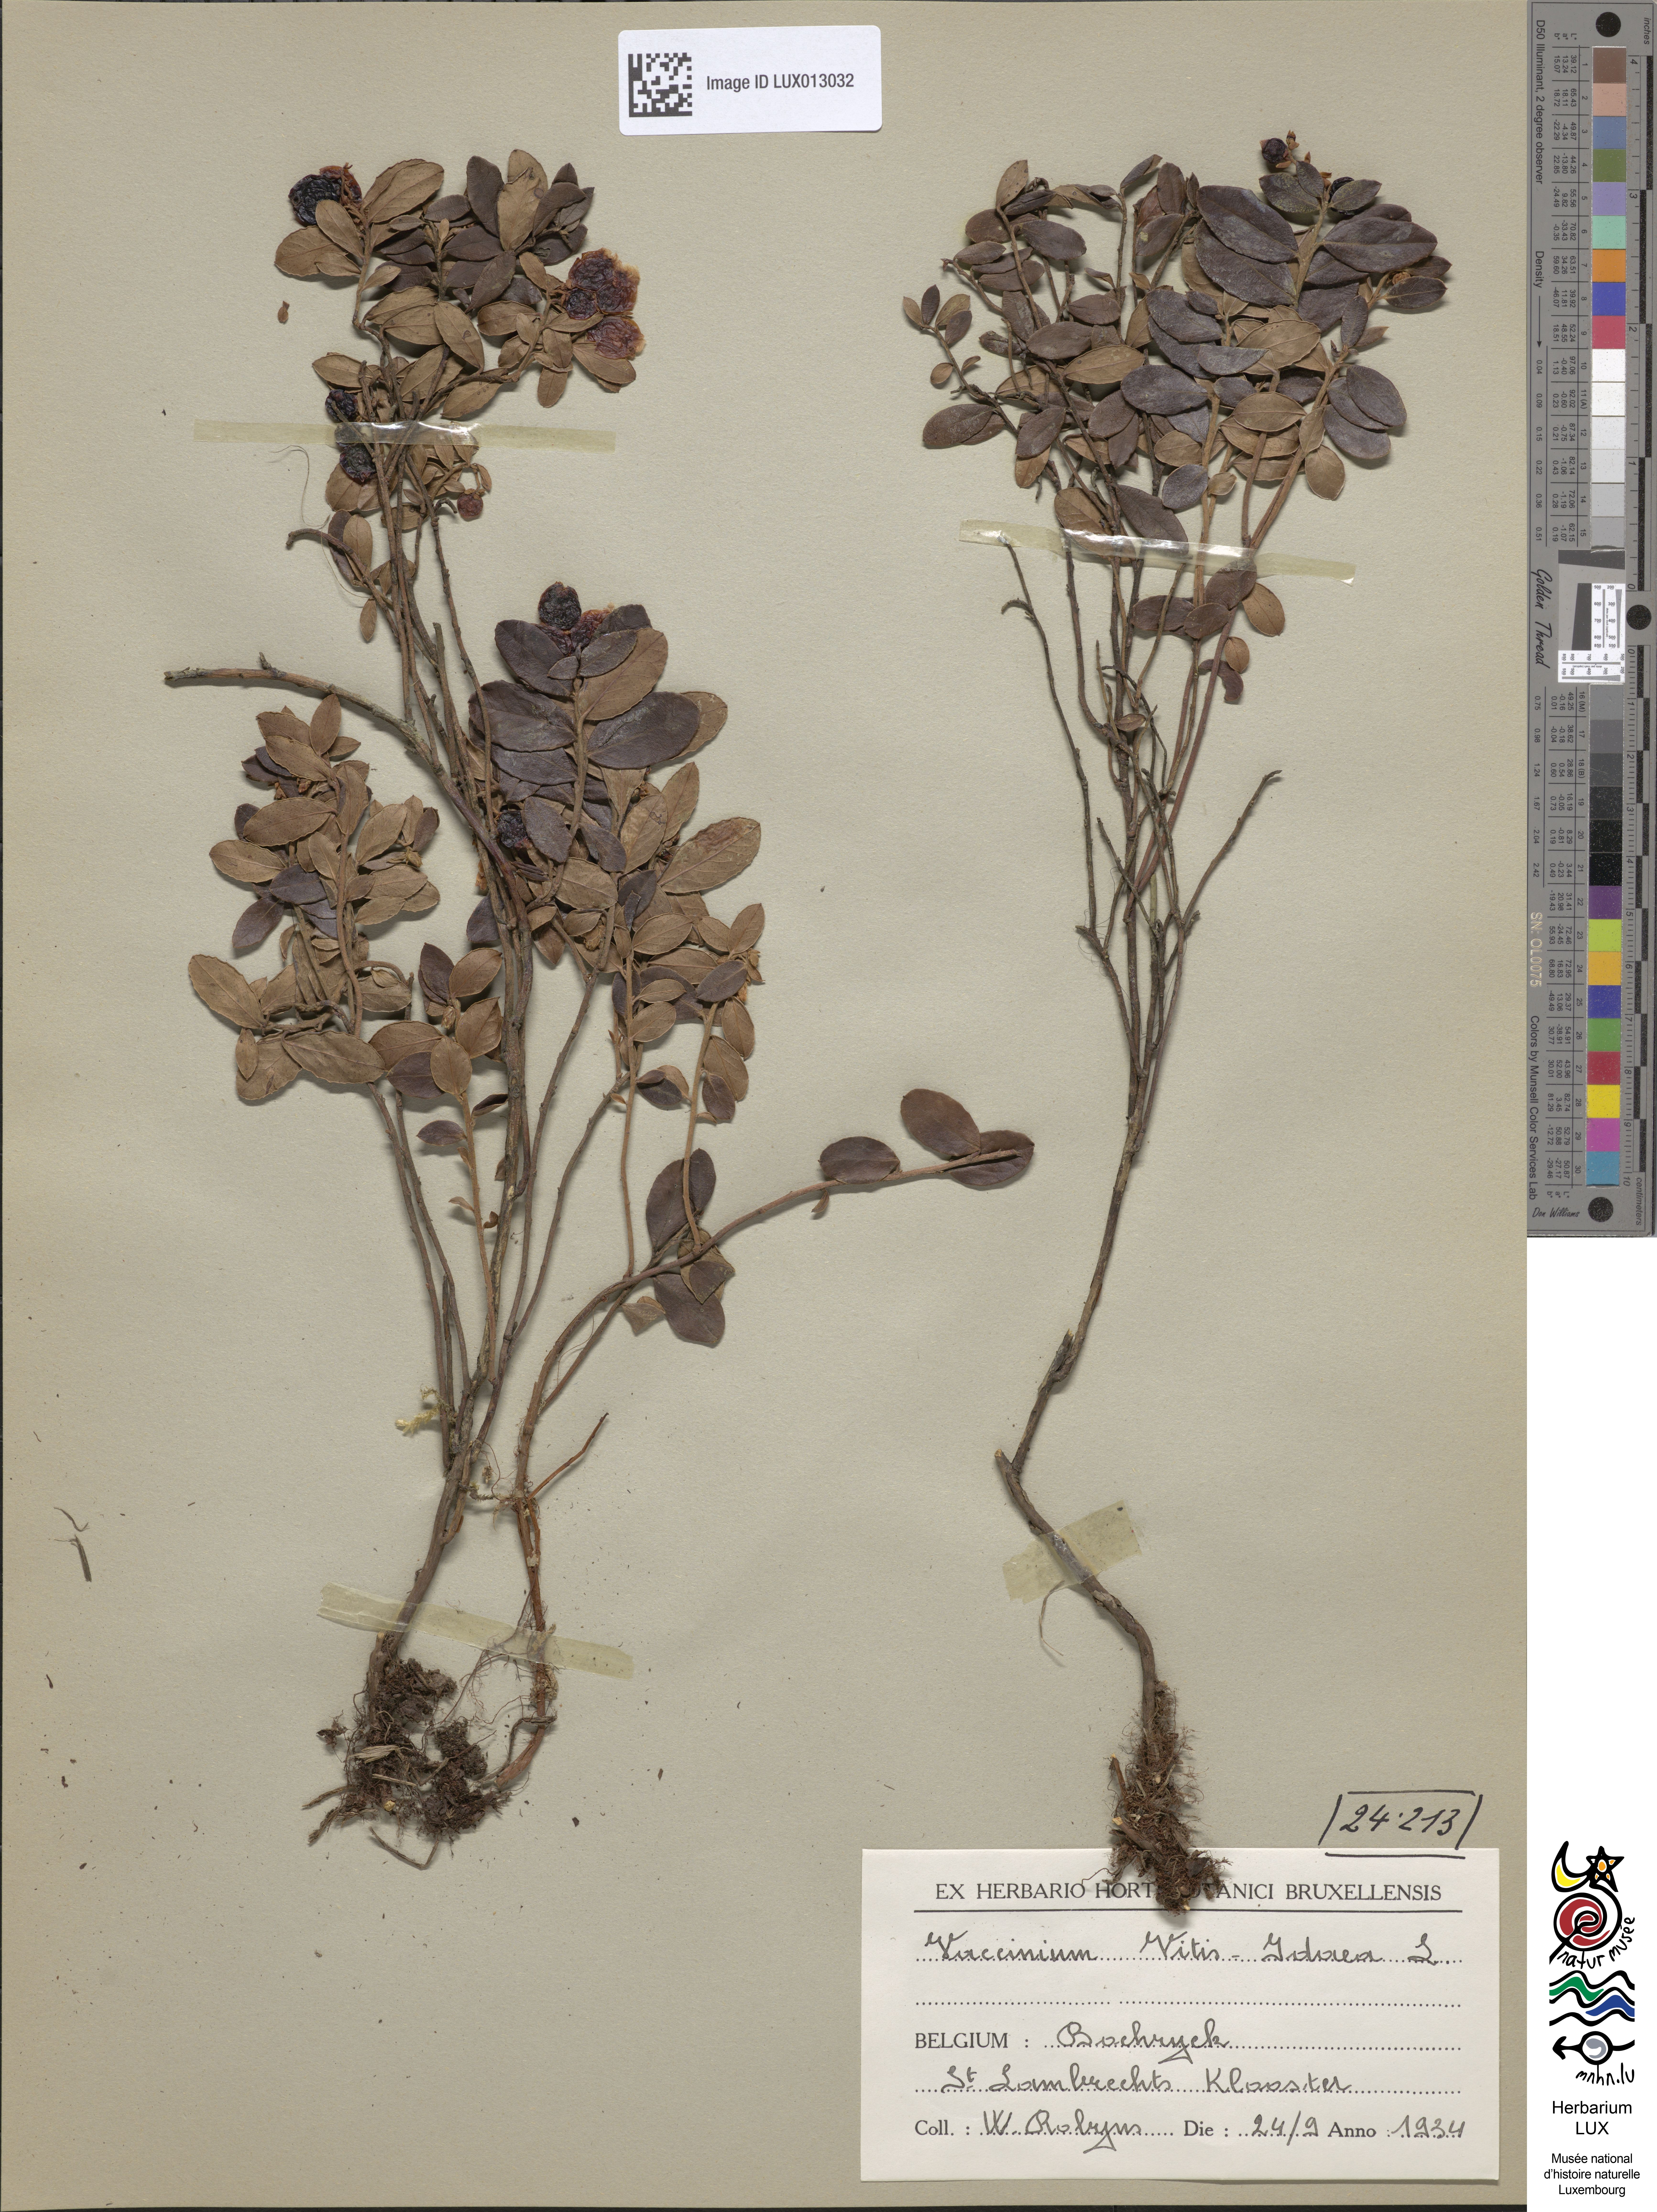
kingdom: Plantae
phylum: Tracheophyta
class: Magnoliopsida
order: Ericales
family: Ericaceae
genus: Vaccinium
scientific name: Vaccinium vitis-idaea
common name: Cowberry
